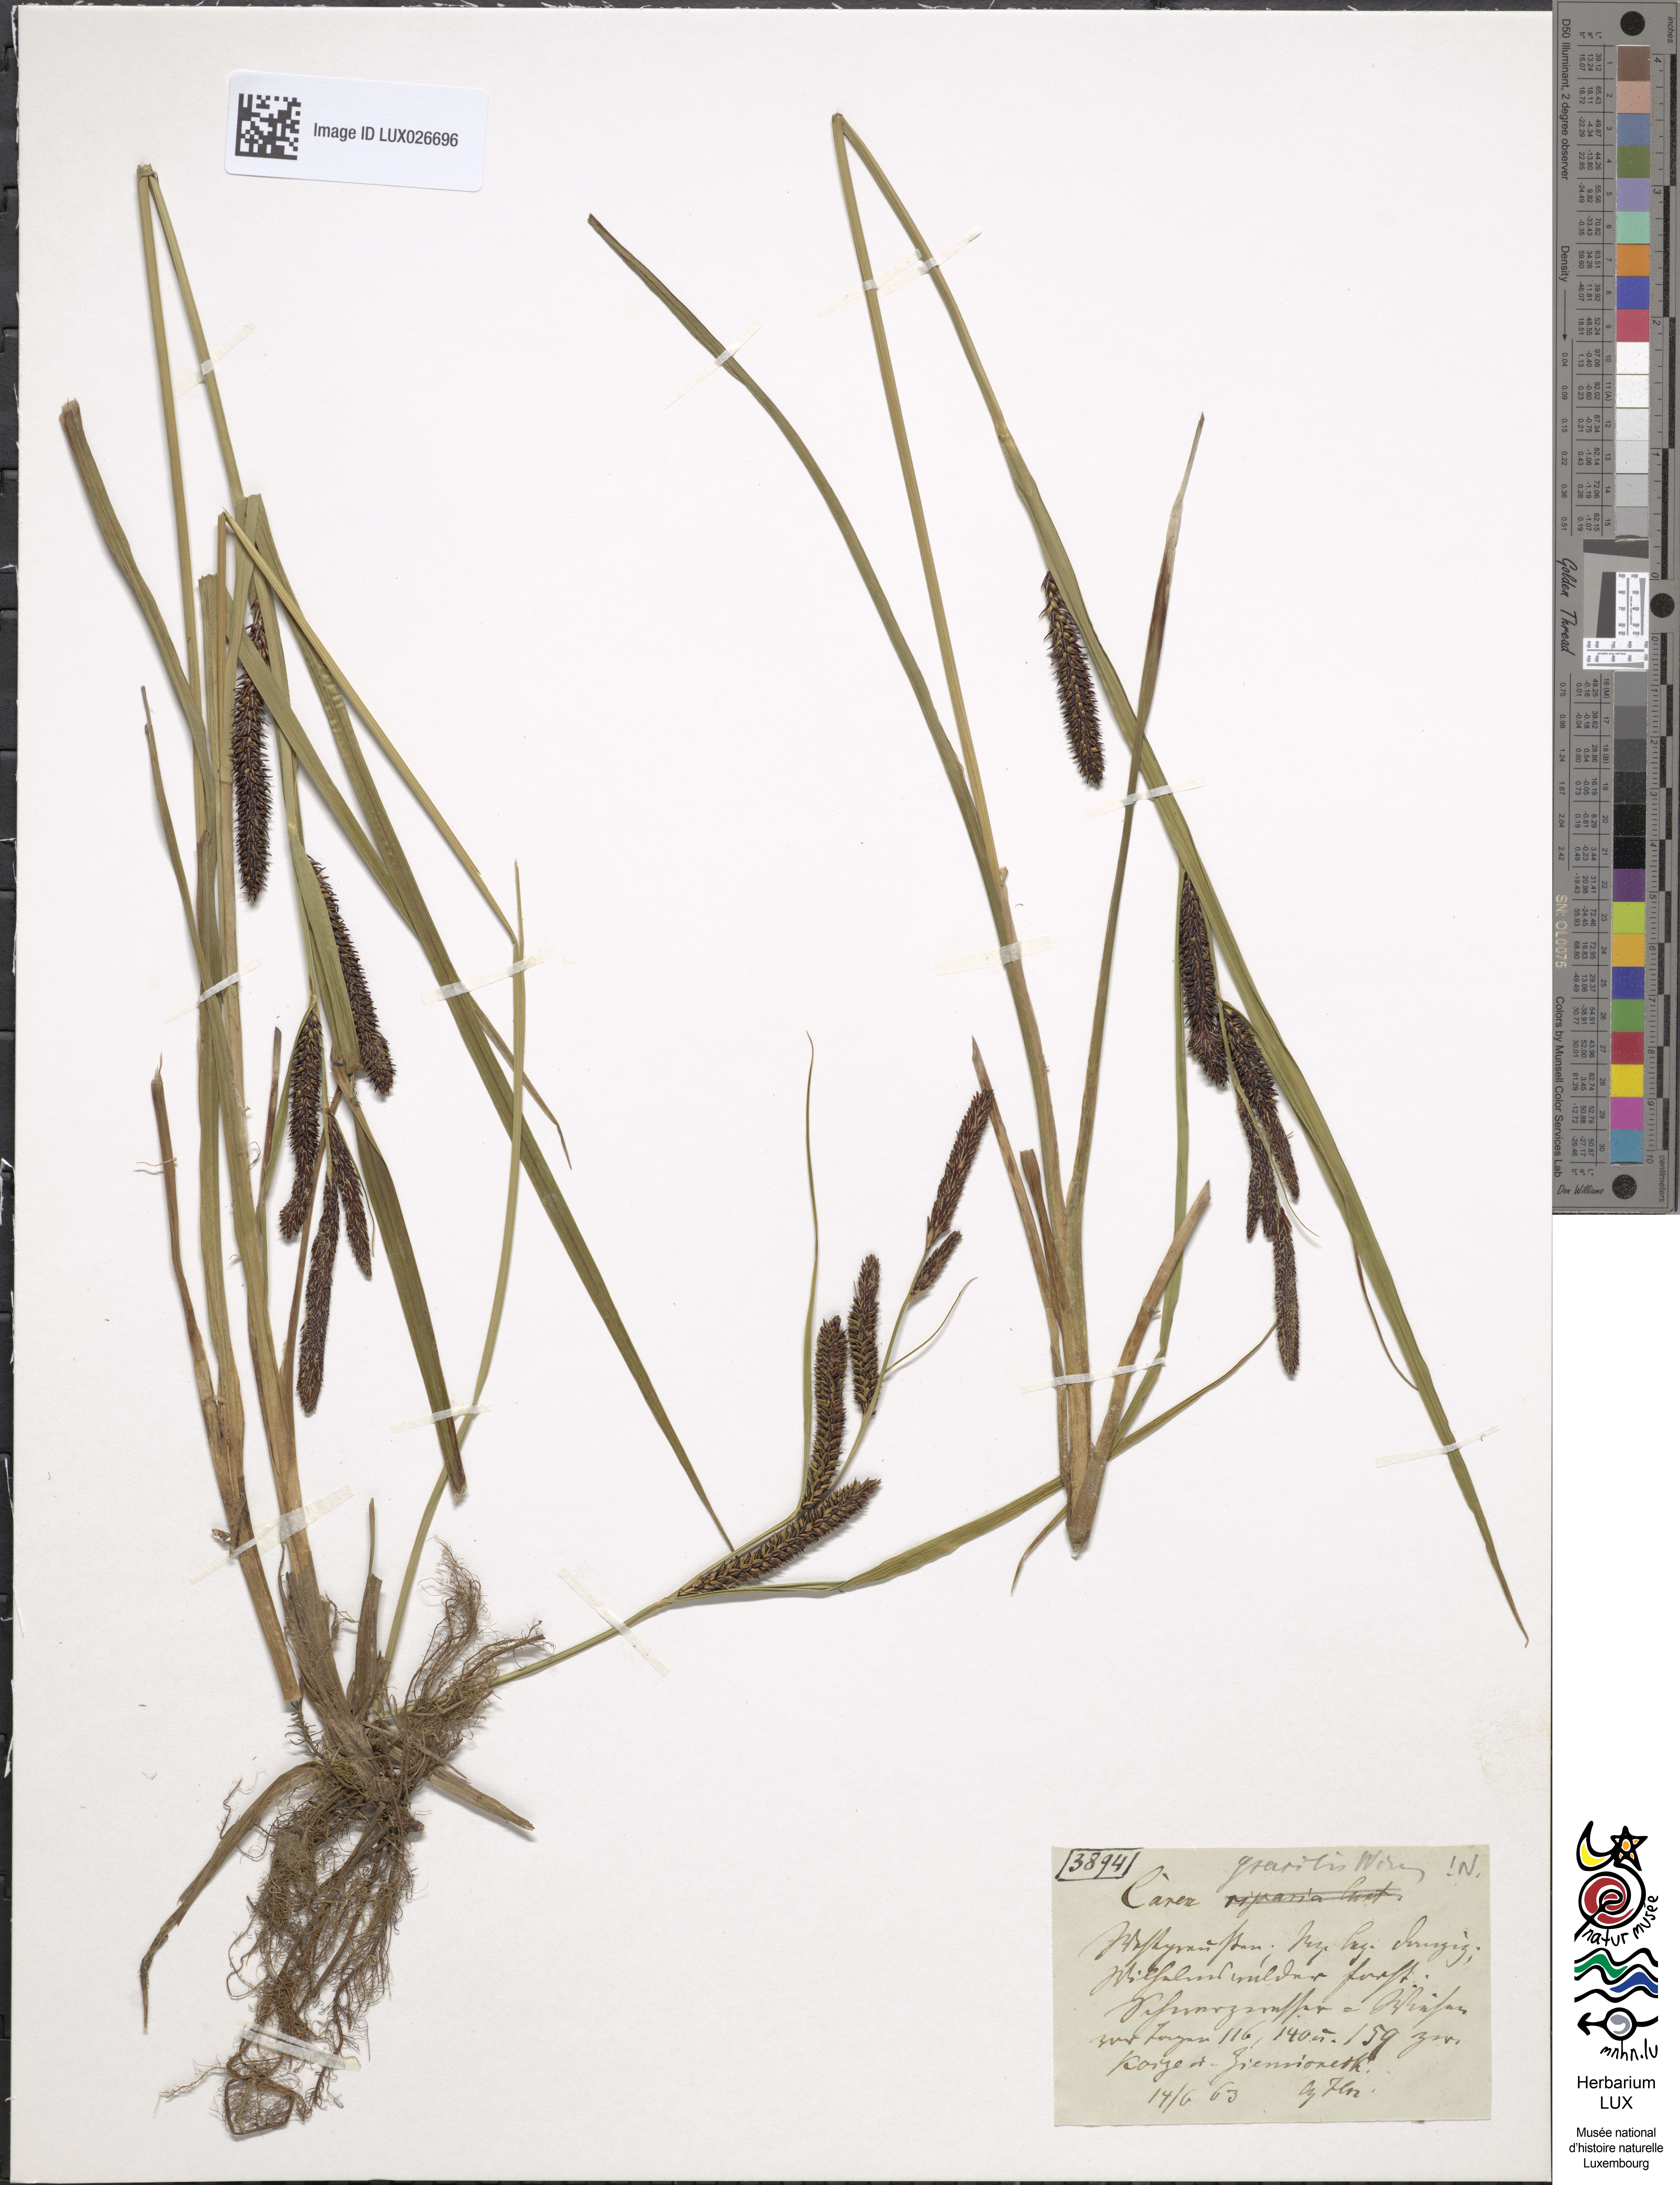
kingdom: Plantae
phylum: Tracheophyta
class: Liliopsida
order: Poales
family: Cyperaceae
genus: Carex
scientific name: Carex acuta
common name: Slender tufted-sedge
